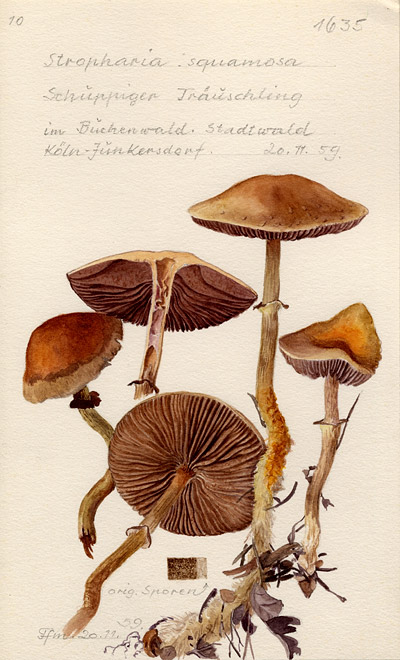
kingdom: Fungi
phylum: Basidiomycota
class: Agaricomycetes
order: Agaricales
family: Strophariaceae
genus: Leratiomyces
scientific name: Leratiomyces squamosus
